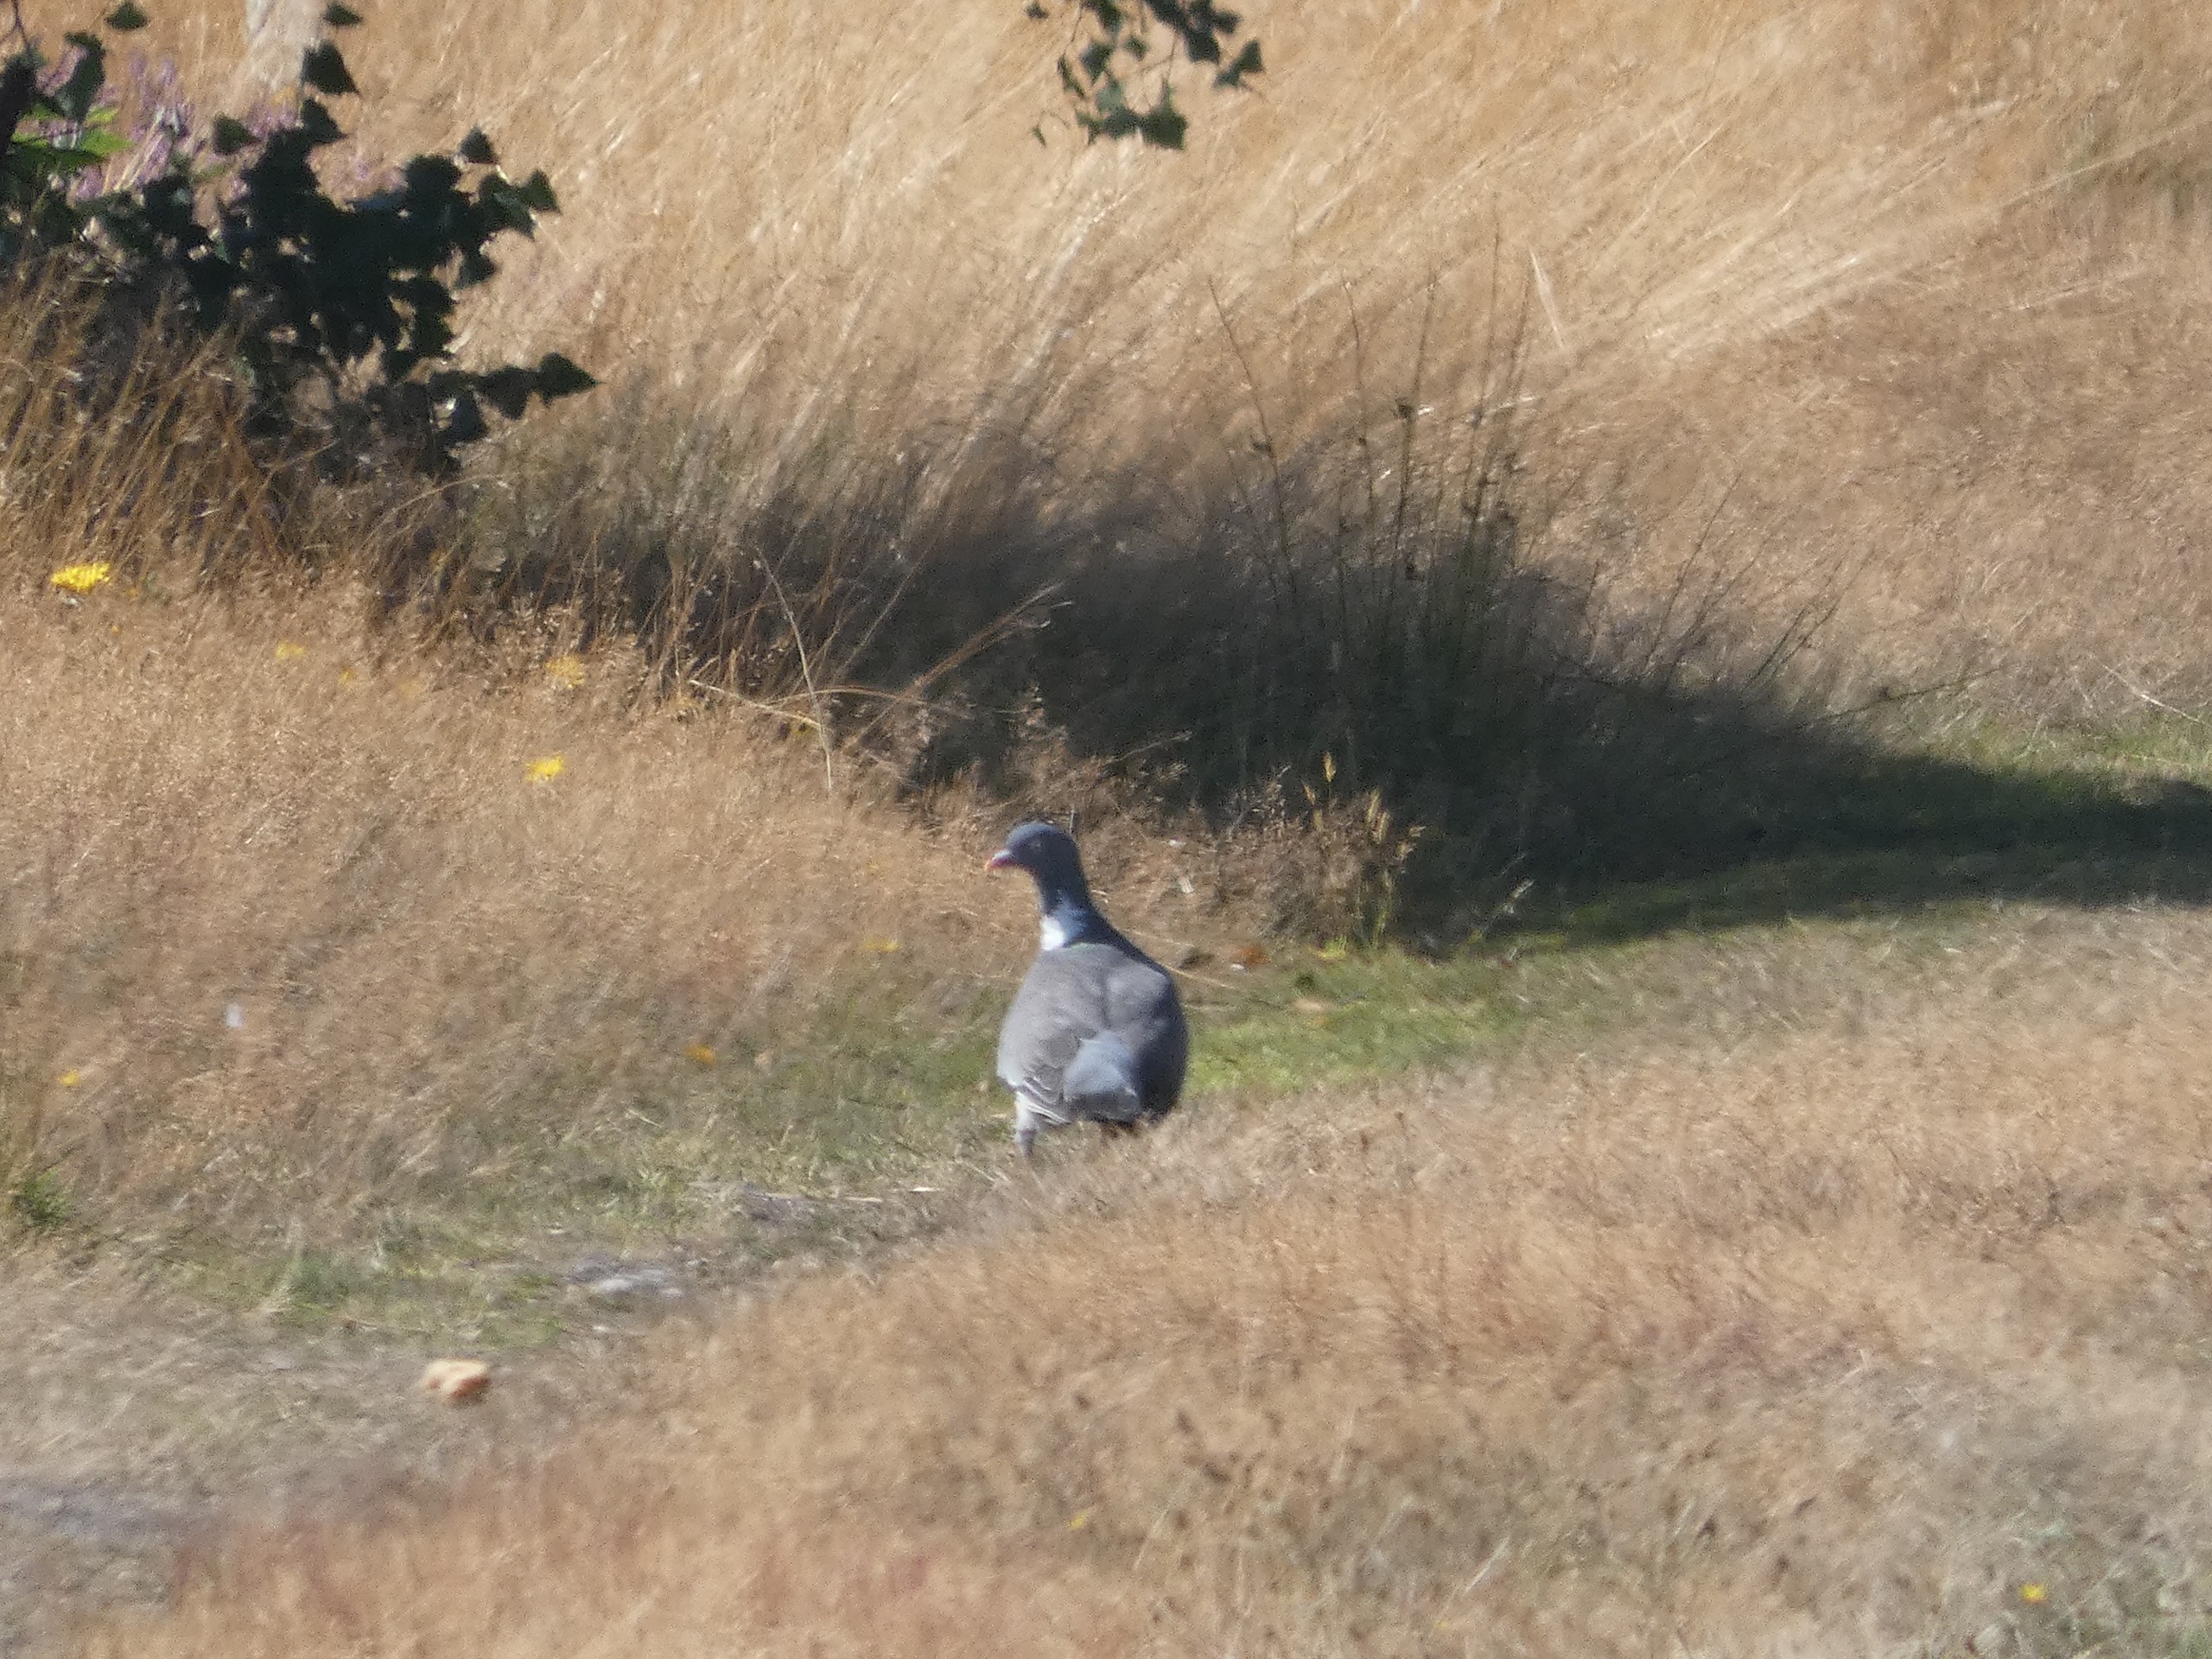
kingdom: Animalia
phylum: Chordata
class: Aves
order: Columbiformes
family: Columbidae
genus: Columba
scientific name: Columba palumbus
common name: Ringdue
